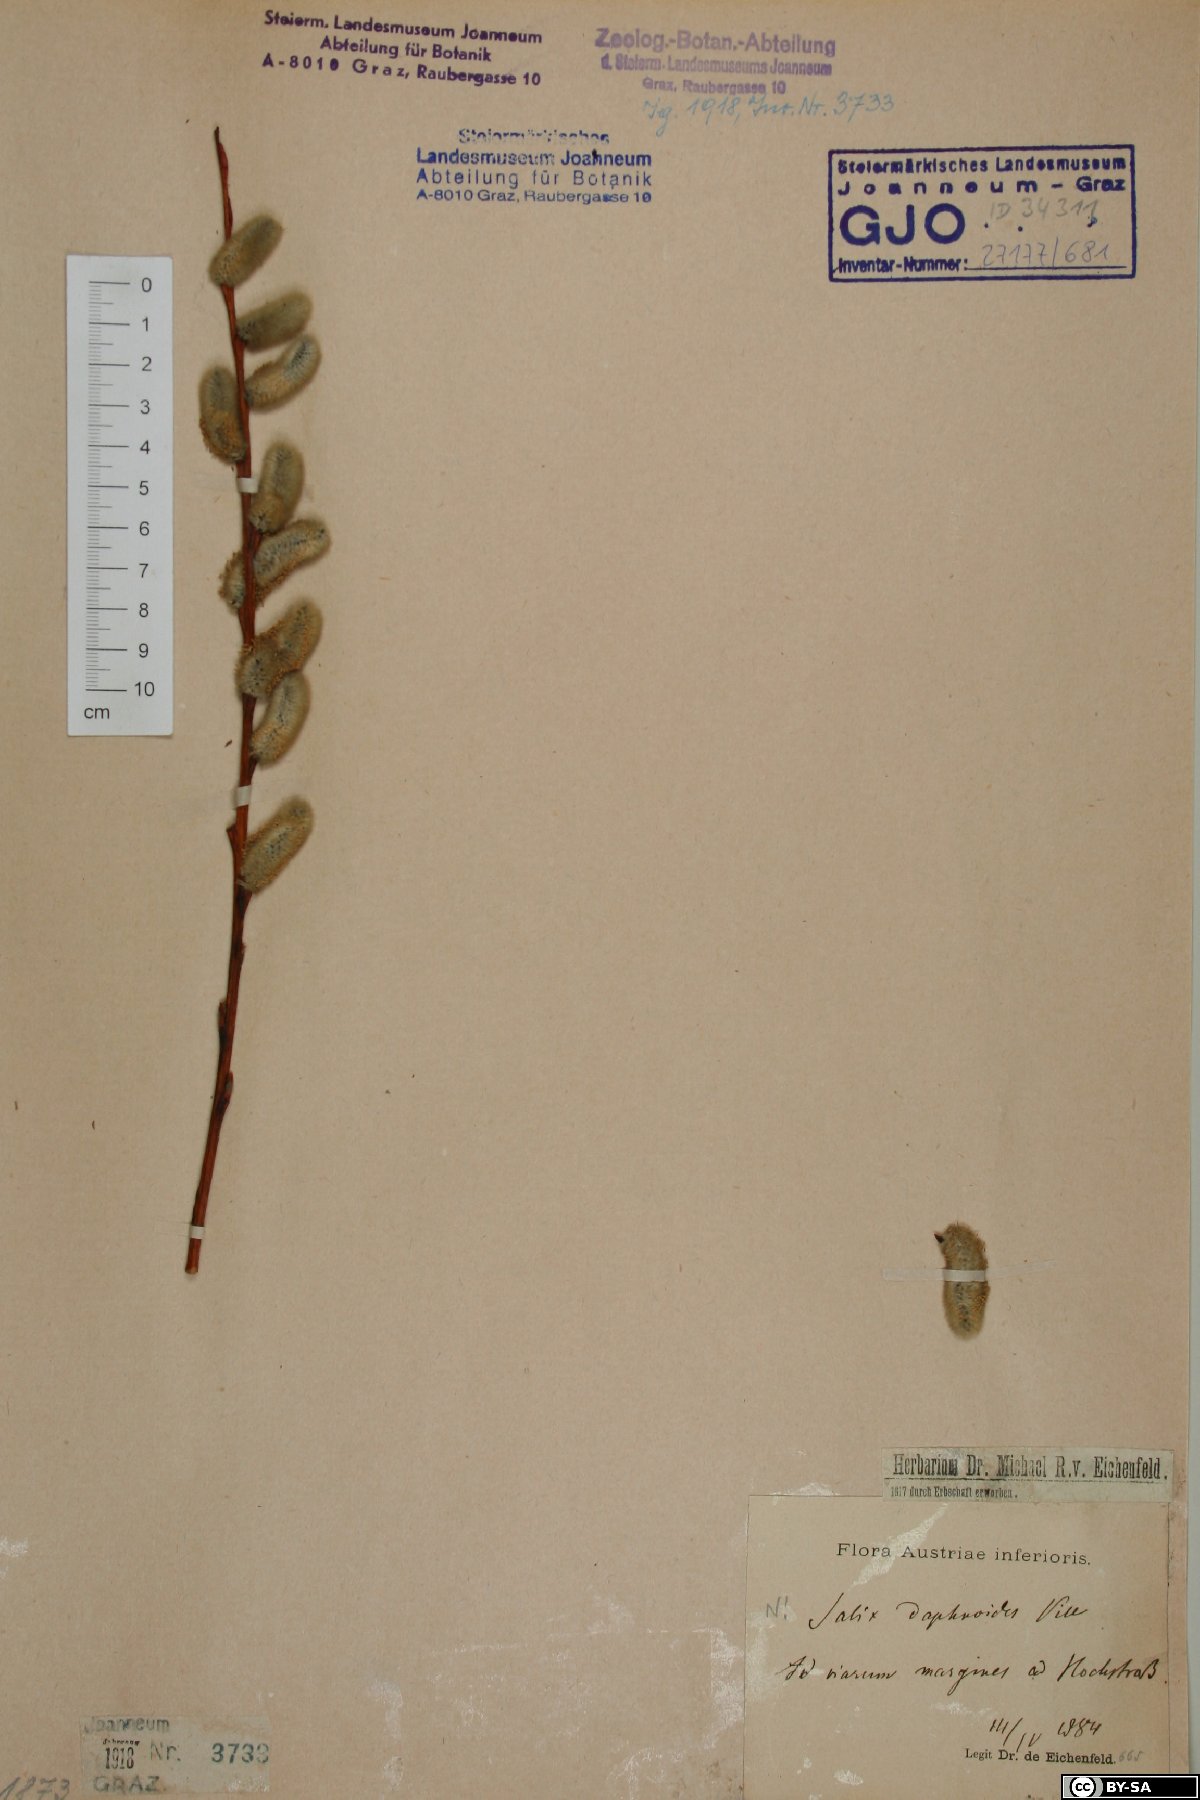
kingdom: Plantae
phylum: Tracheophyta
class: Magnoliopsida
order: Malpighiales
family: Salicaceae
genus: Salix
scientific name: Salix daphnoides
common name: European violet-willow
